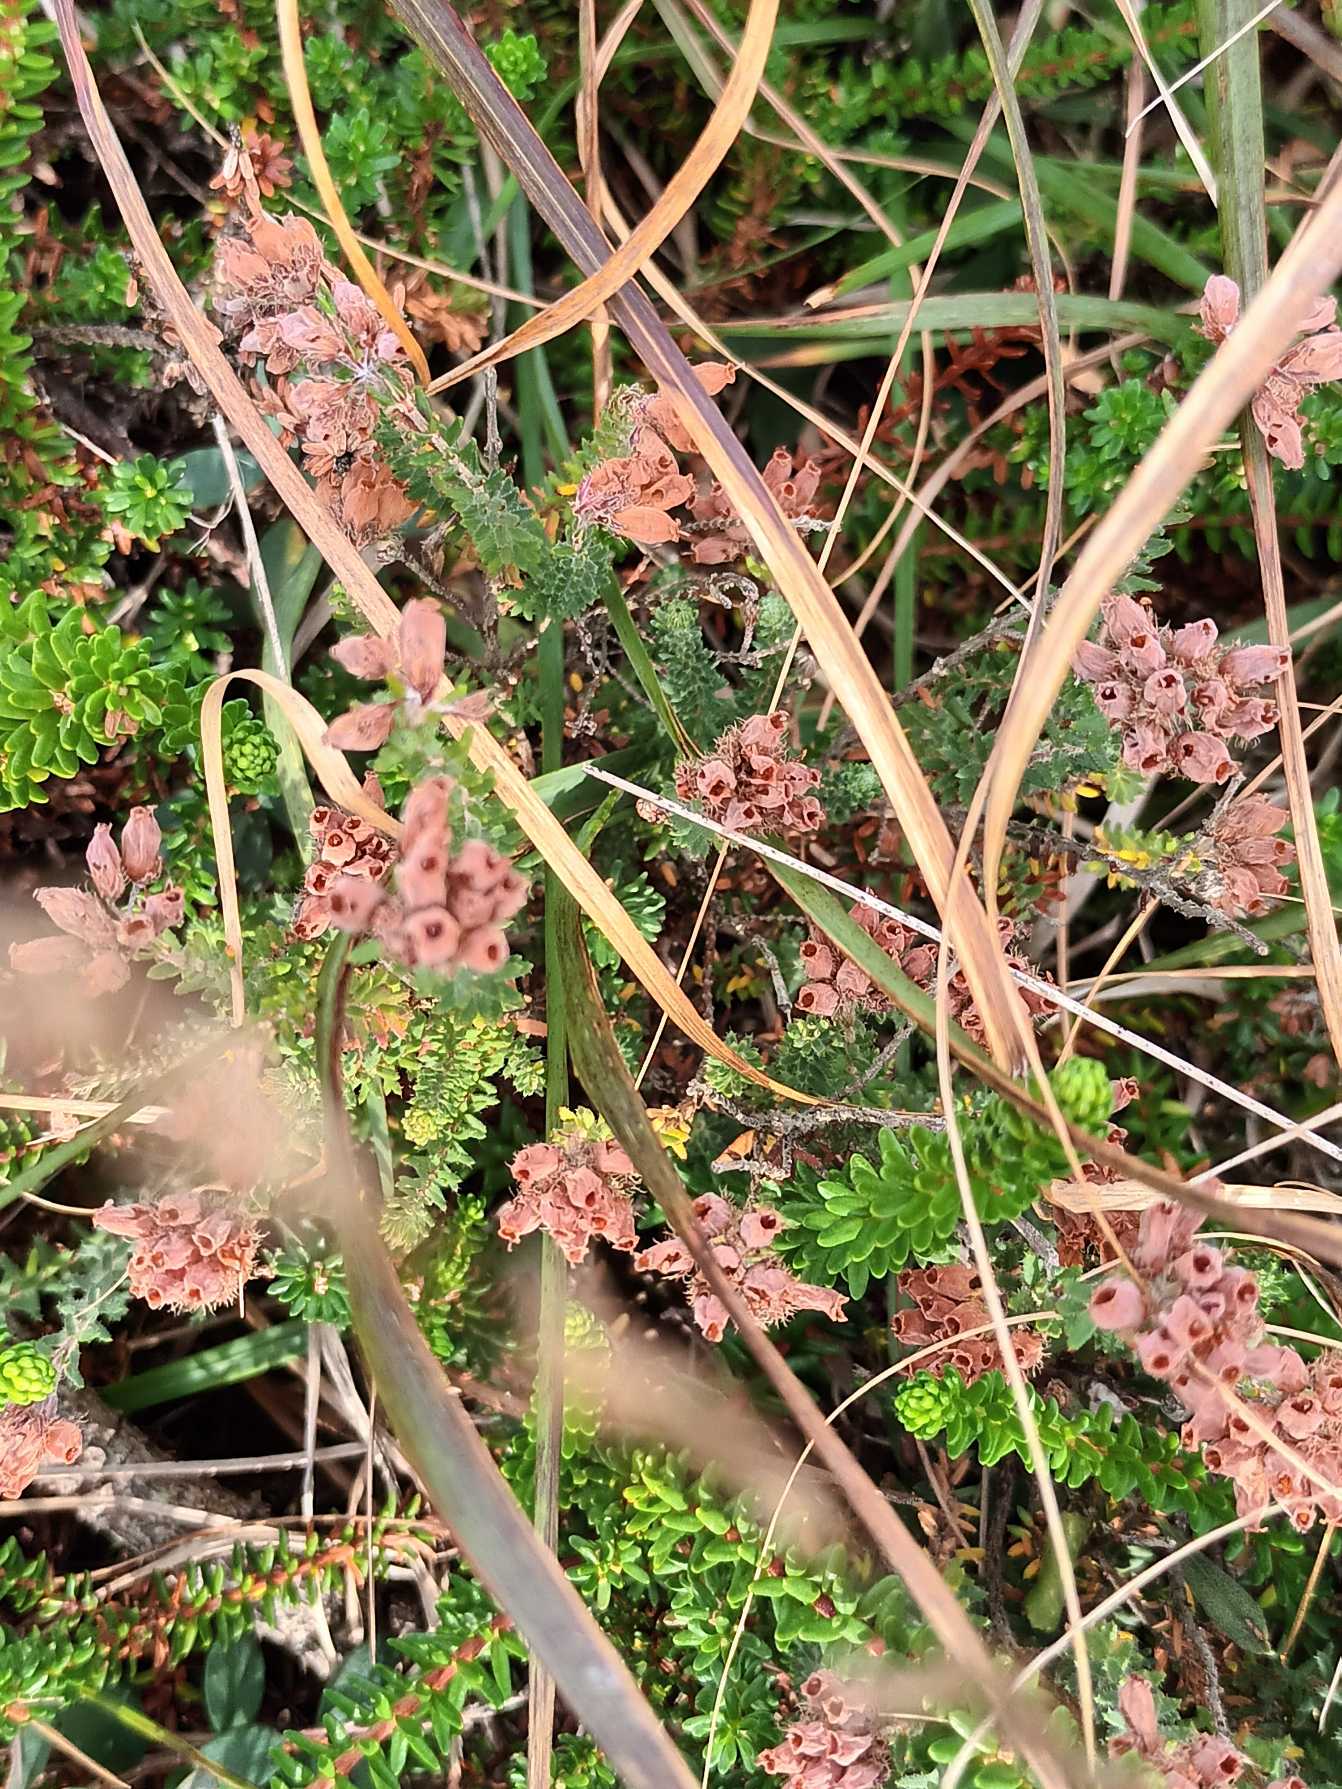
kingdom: Plantae
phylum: Tracheophyta
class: Magnoliopsida
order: Ericales
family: Ericaceae
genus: Erica
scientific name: Erica tetralix
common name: Klokkelyng
